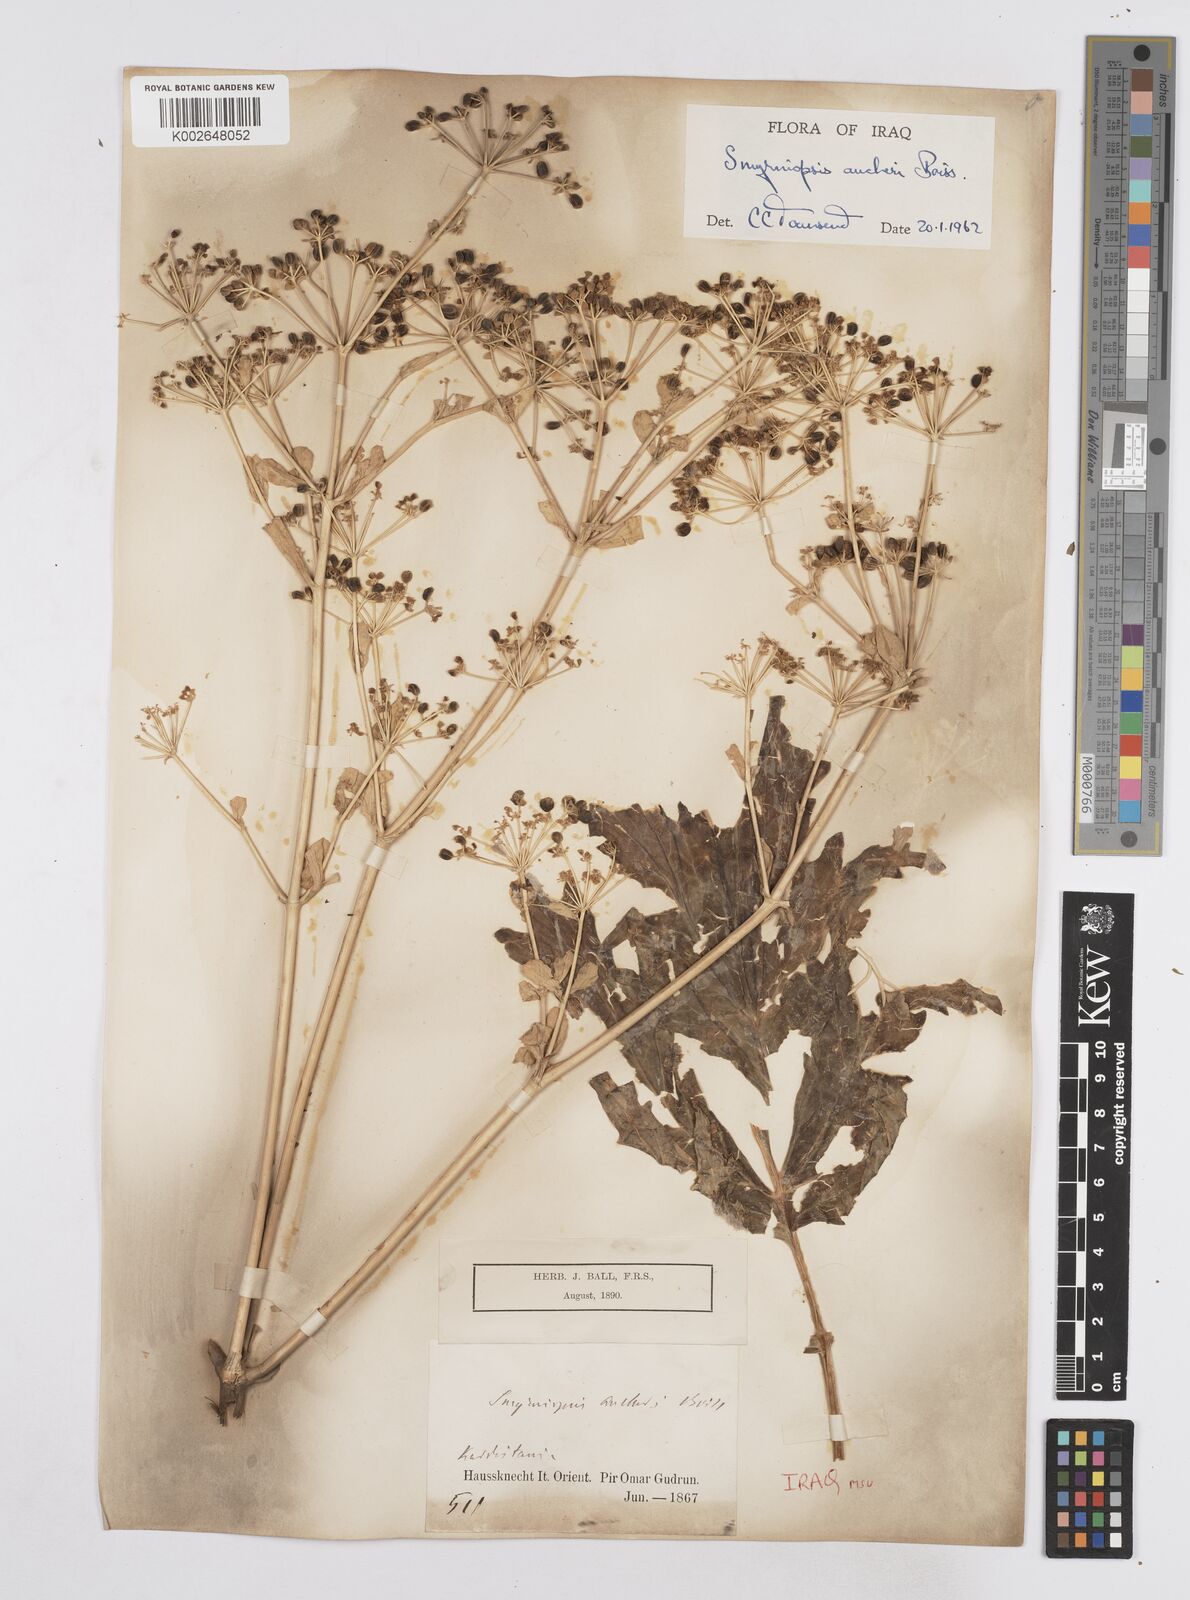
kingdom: Plantae
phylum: Tracheophyta
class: Magnoliopsida
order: Apiales
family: Apiaceae
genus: Smyrniopsis
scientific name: Smyrniopsis aucheri
